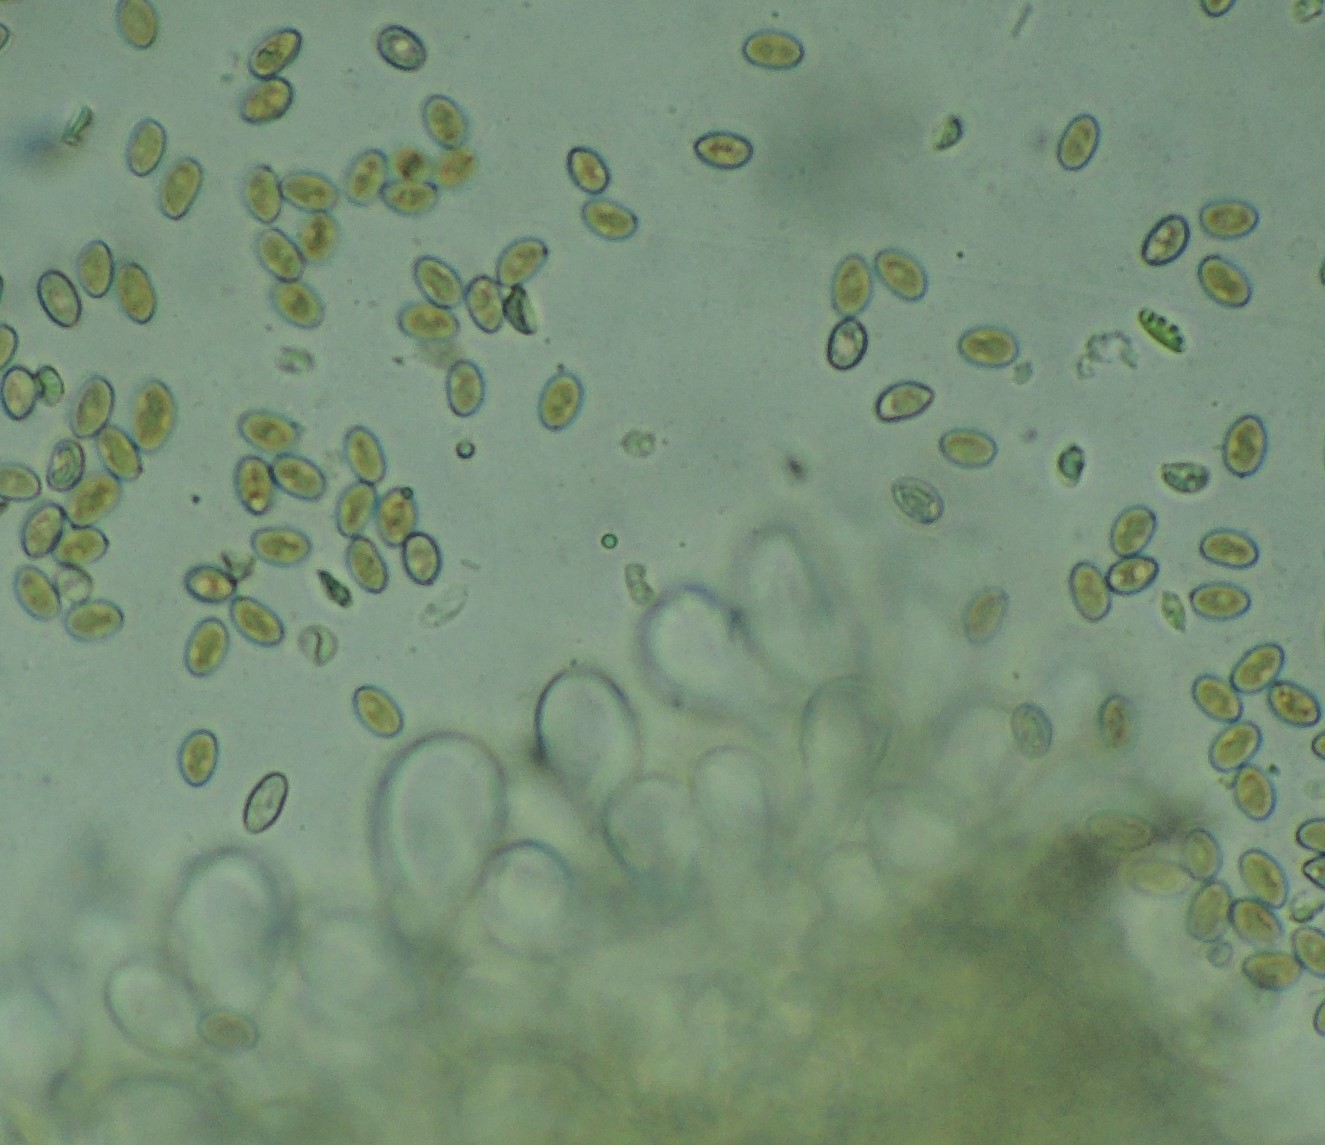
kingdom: Fungi
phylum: Basidiomycota
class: Agaricomycetes
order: Agaricales
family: Inocybaceae
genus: Mallocybe
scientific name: Mallocybe agardhii
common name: Agardhs trævlhat
